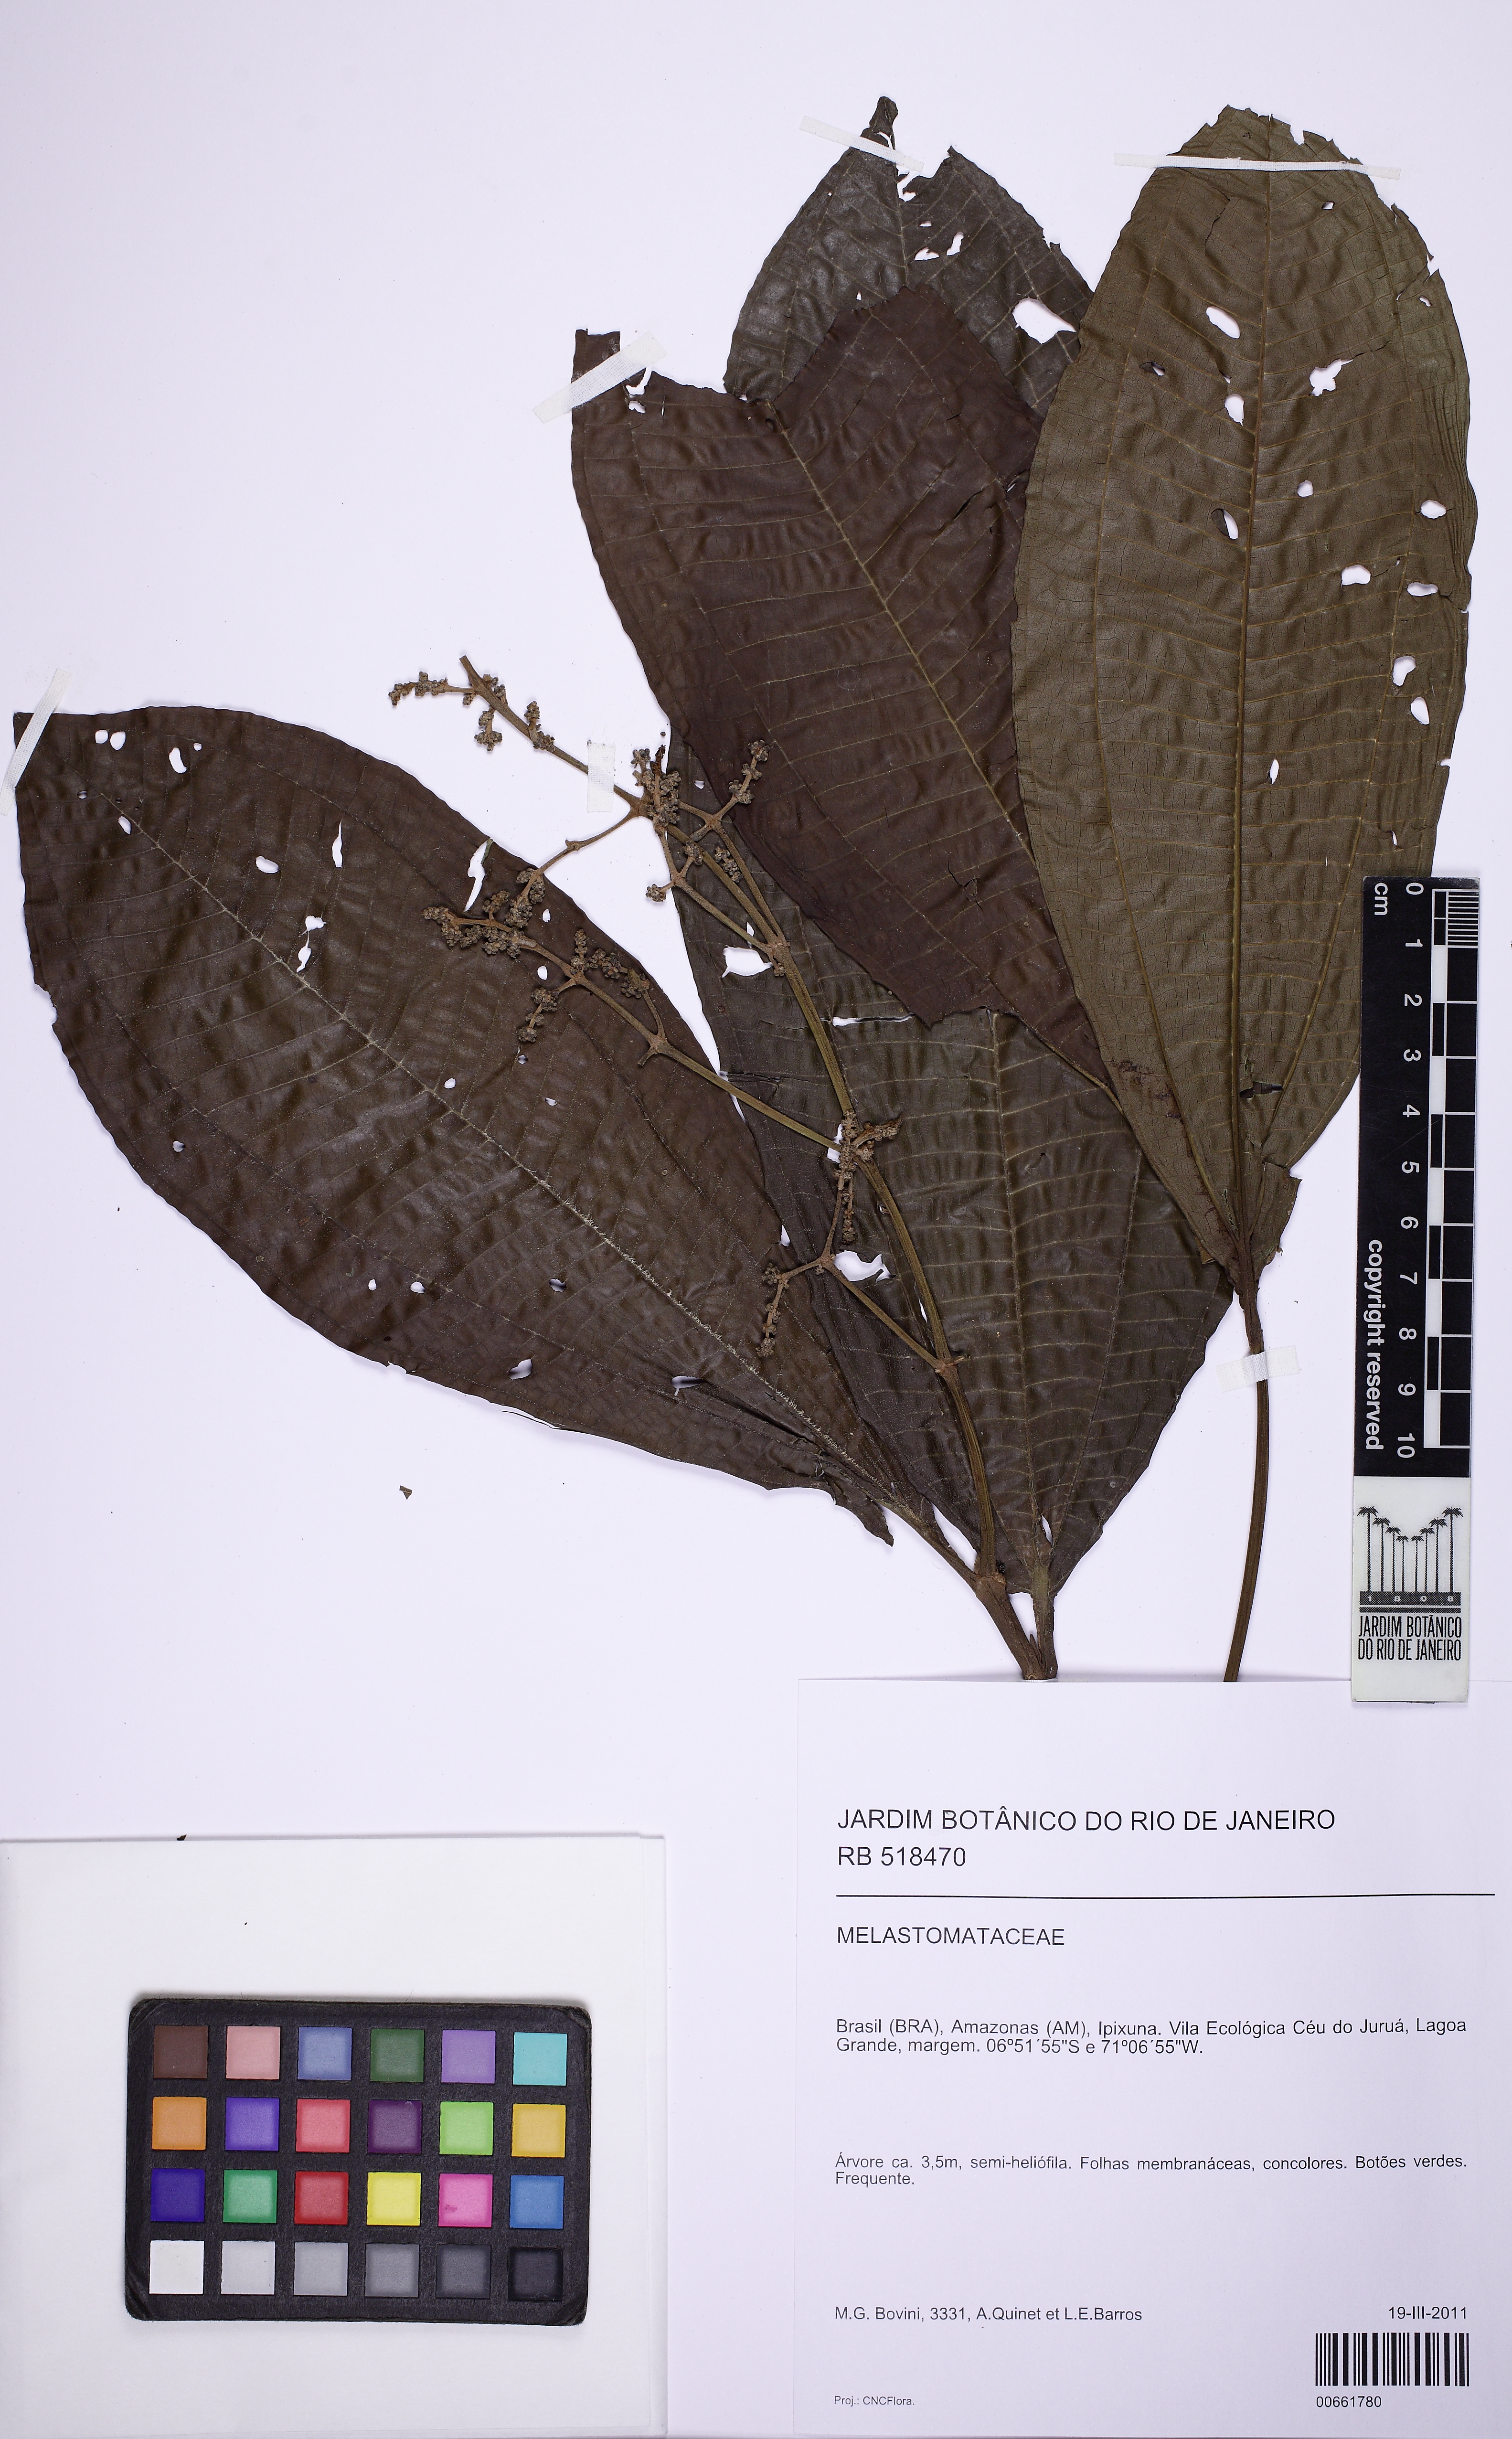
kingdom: Plantae
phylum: Tracheophyta
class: Magnoliopsida
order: Myrtales
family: Melastomataceae
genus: Miconia
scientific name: Miconia
